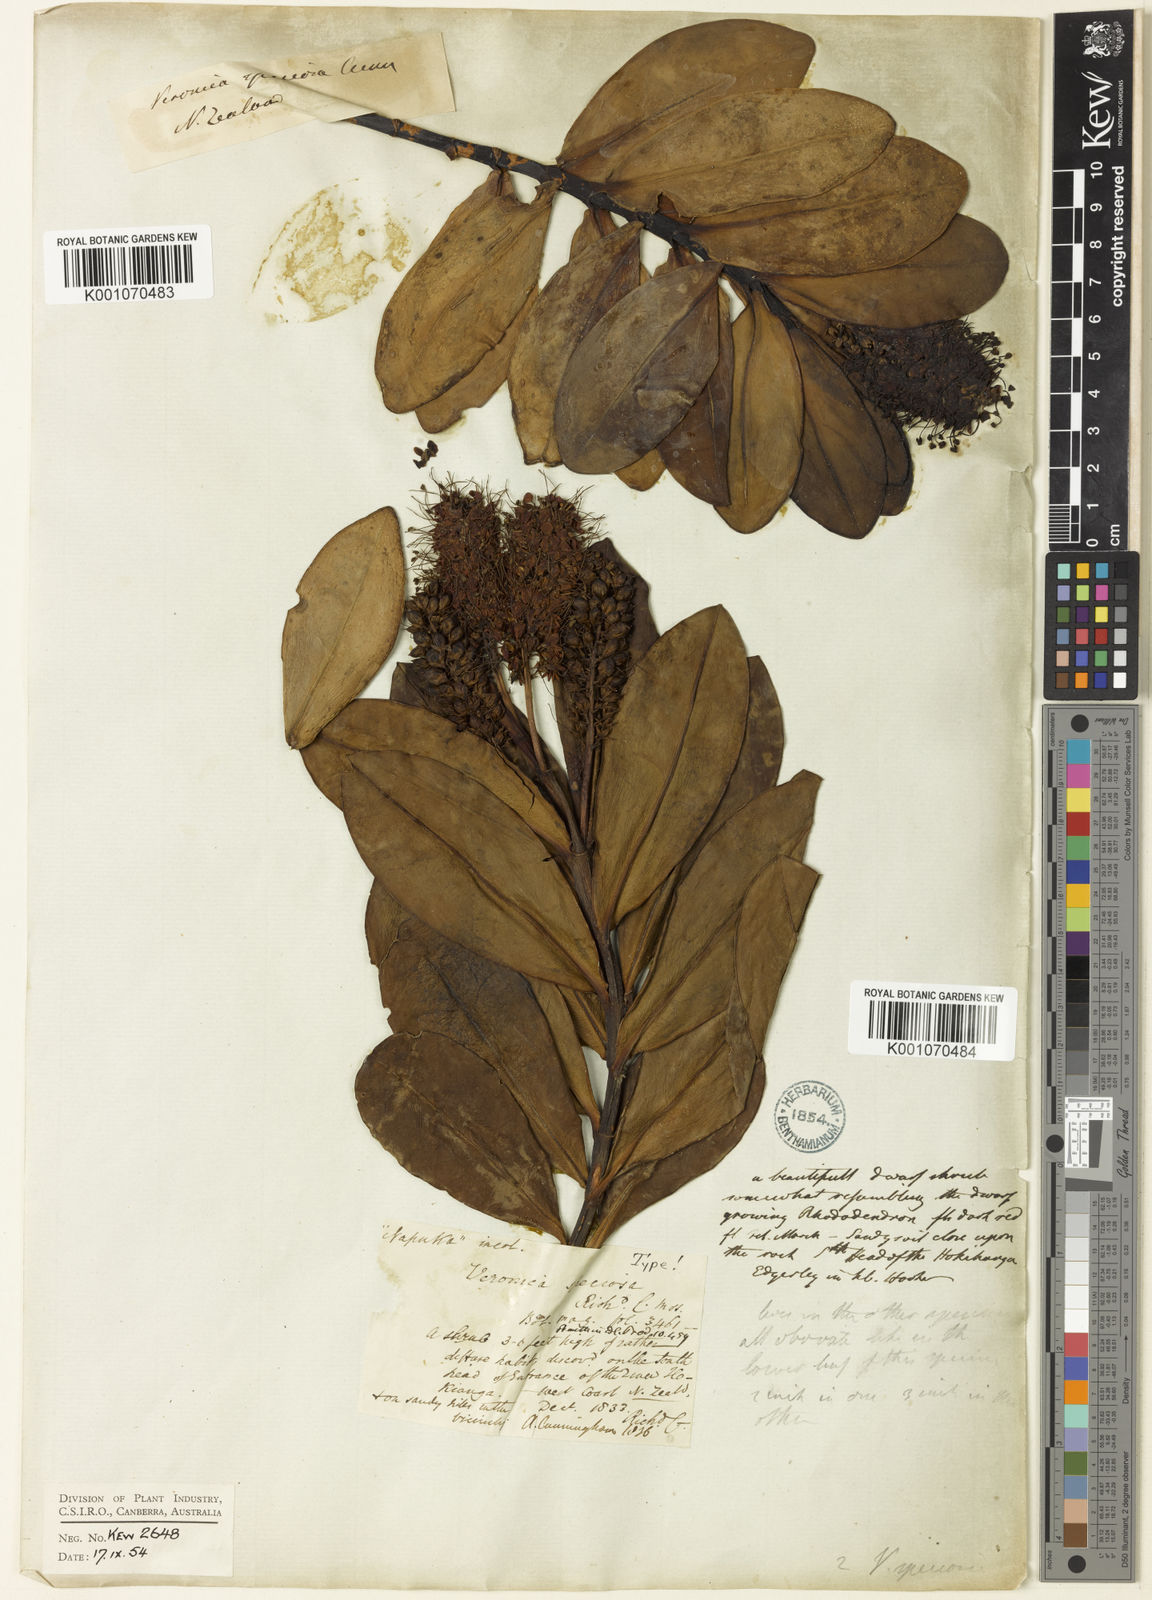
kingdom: Plantae
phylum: Tracheophyta
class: Magnoliopsida
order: Lamiales
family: Plantaginaceae
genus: Veronica
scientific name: Veronica speciosa
